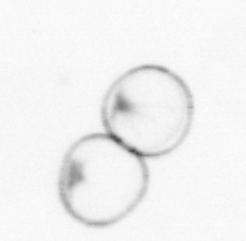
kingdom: Chromista
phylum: Myzozoa
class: Dinophyceae
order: Noctilucales
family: Noctilucaceae
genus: Noctiluca
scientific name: Noctiluca scintillans
